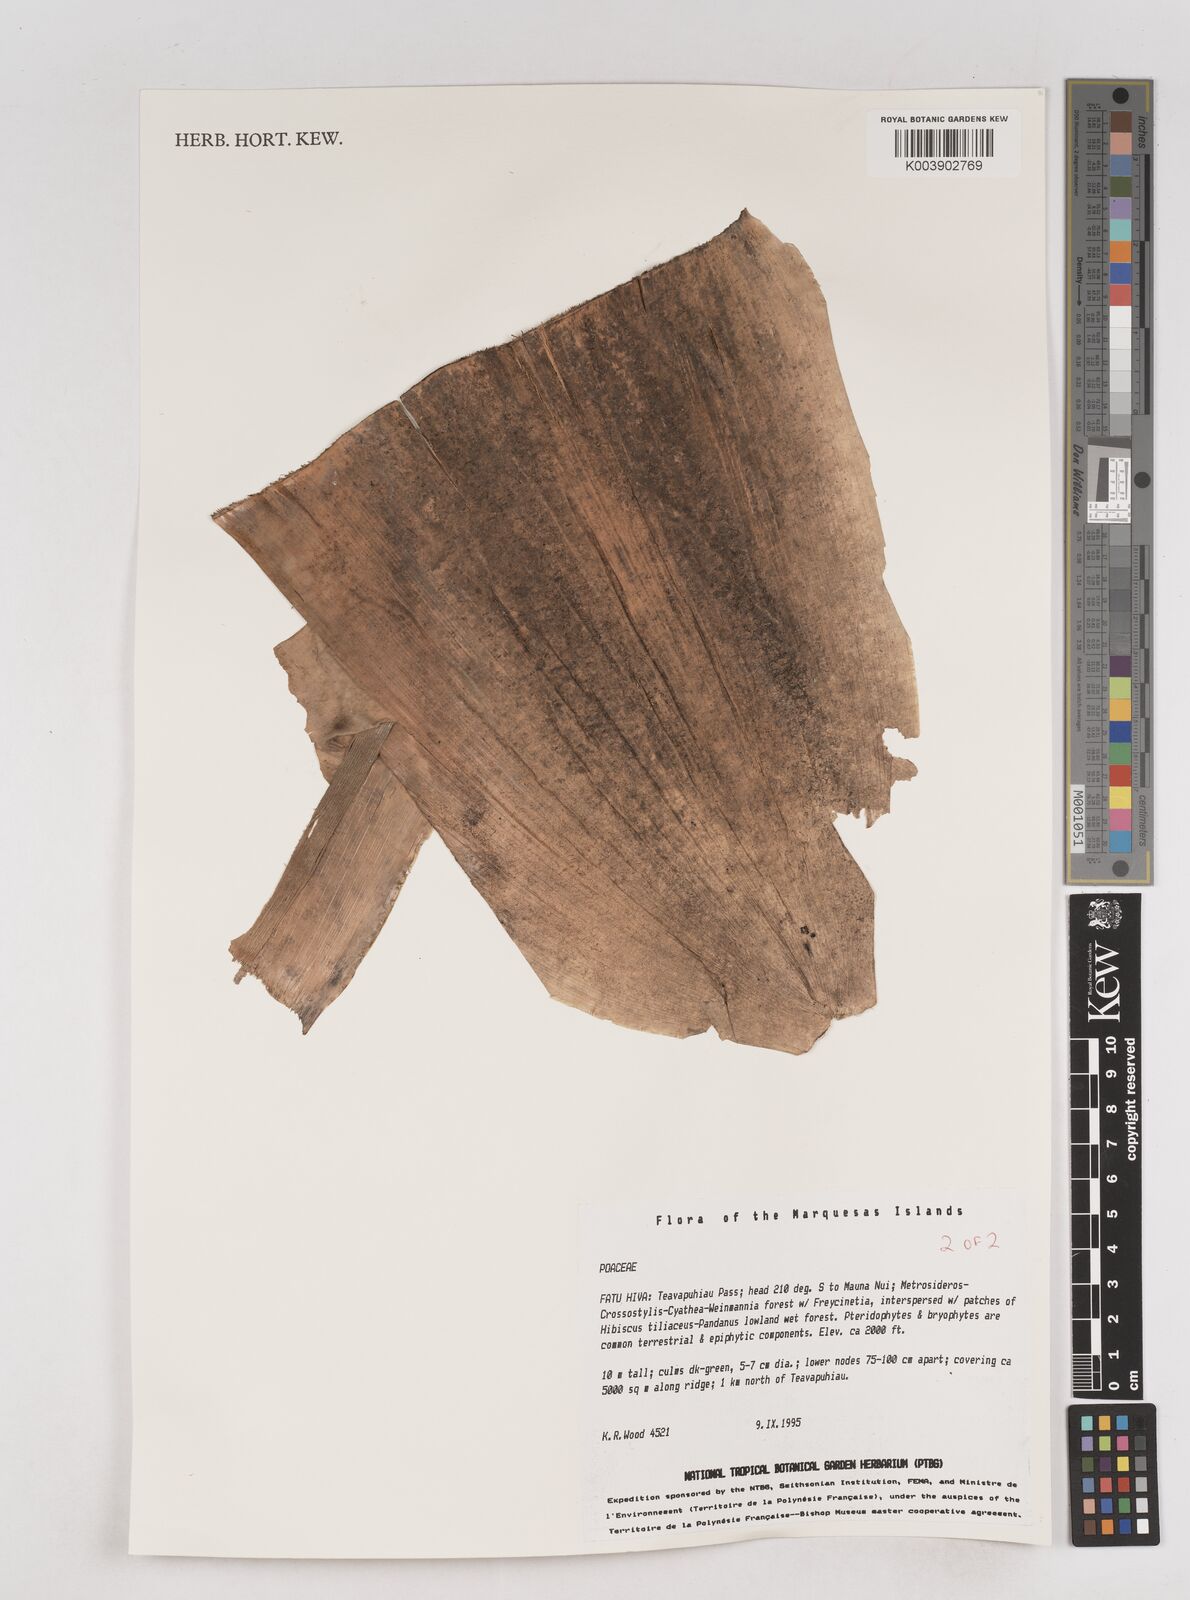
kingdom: Plantae
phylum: Tracheophyta
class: Liliopsida
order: Poales
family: Poaceae
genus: Schizostachyum
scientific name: Schizostachyum
